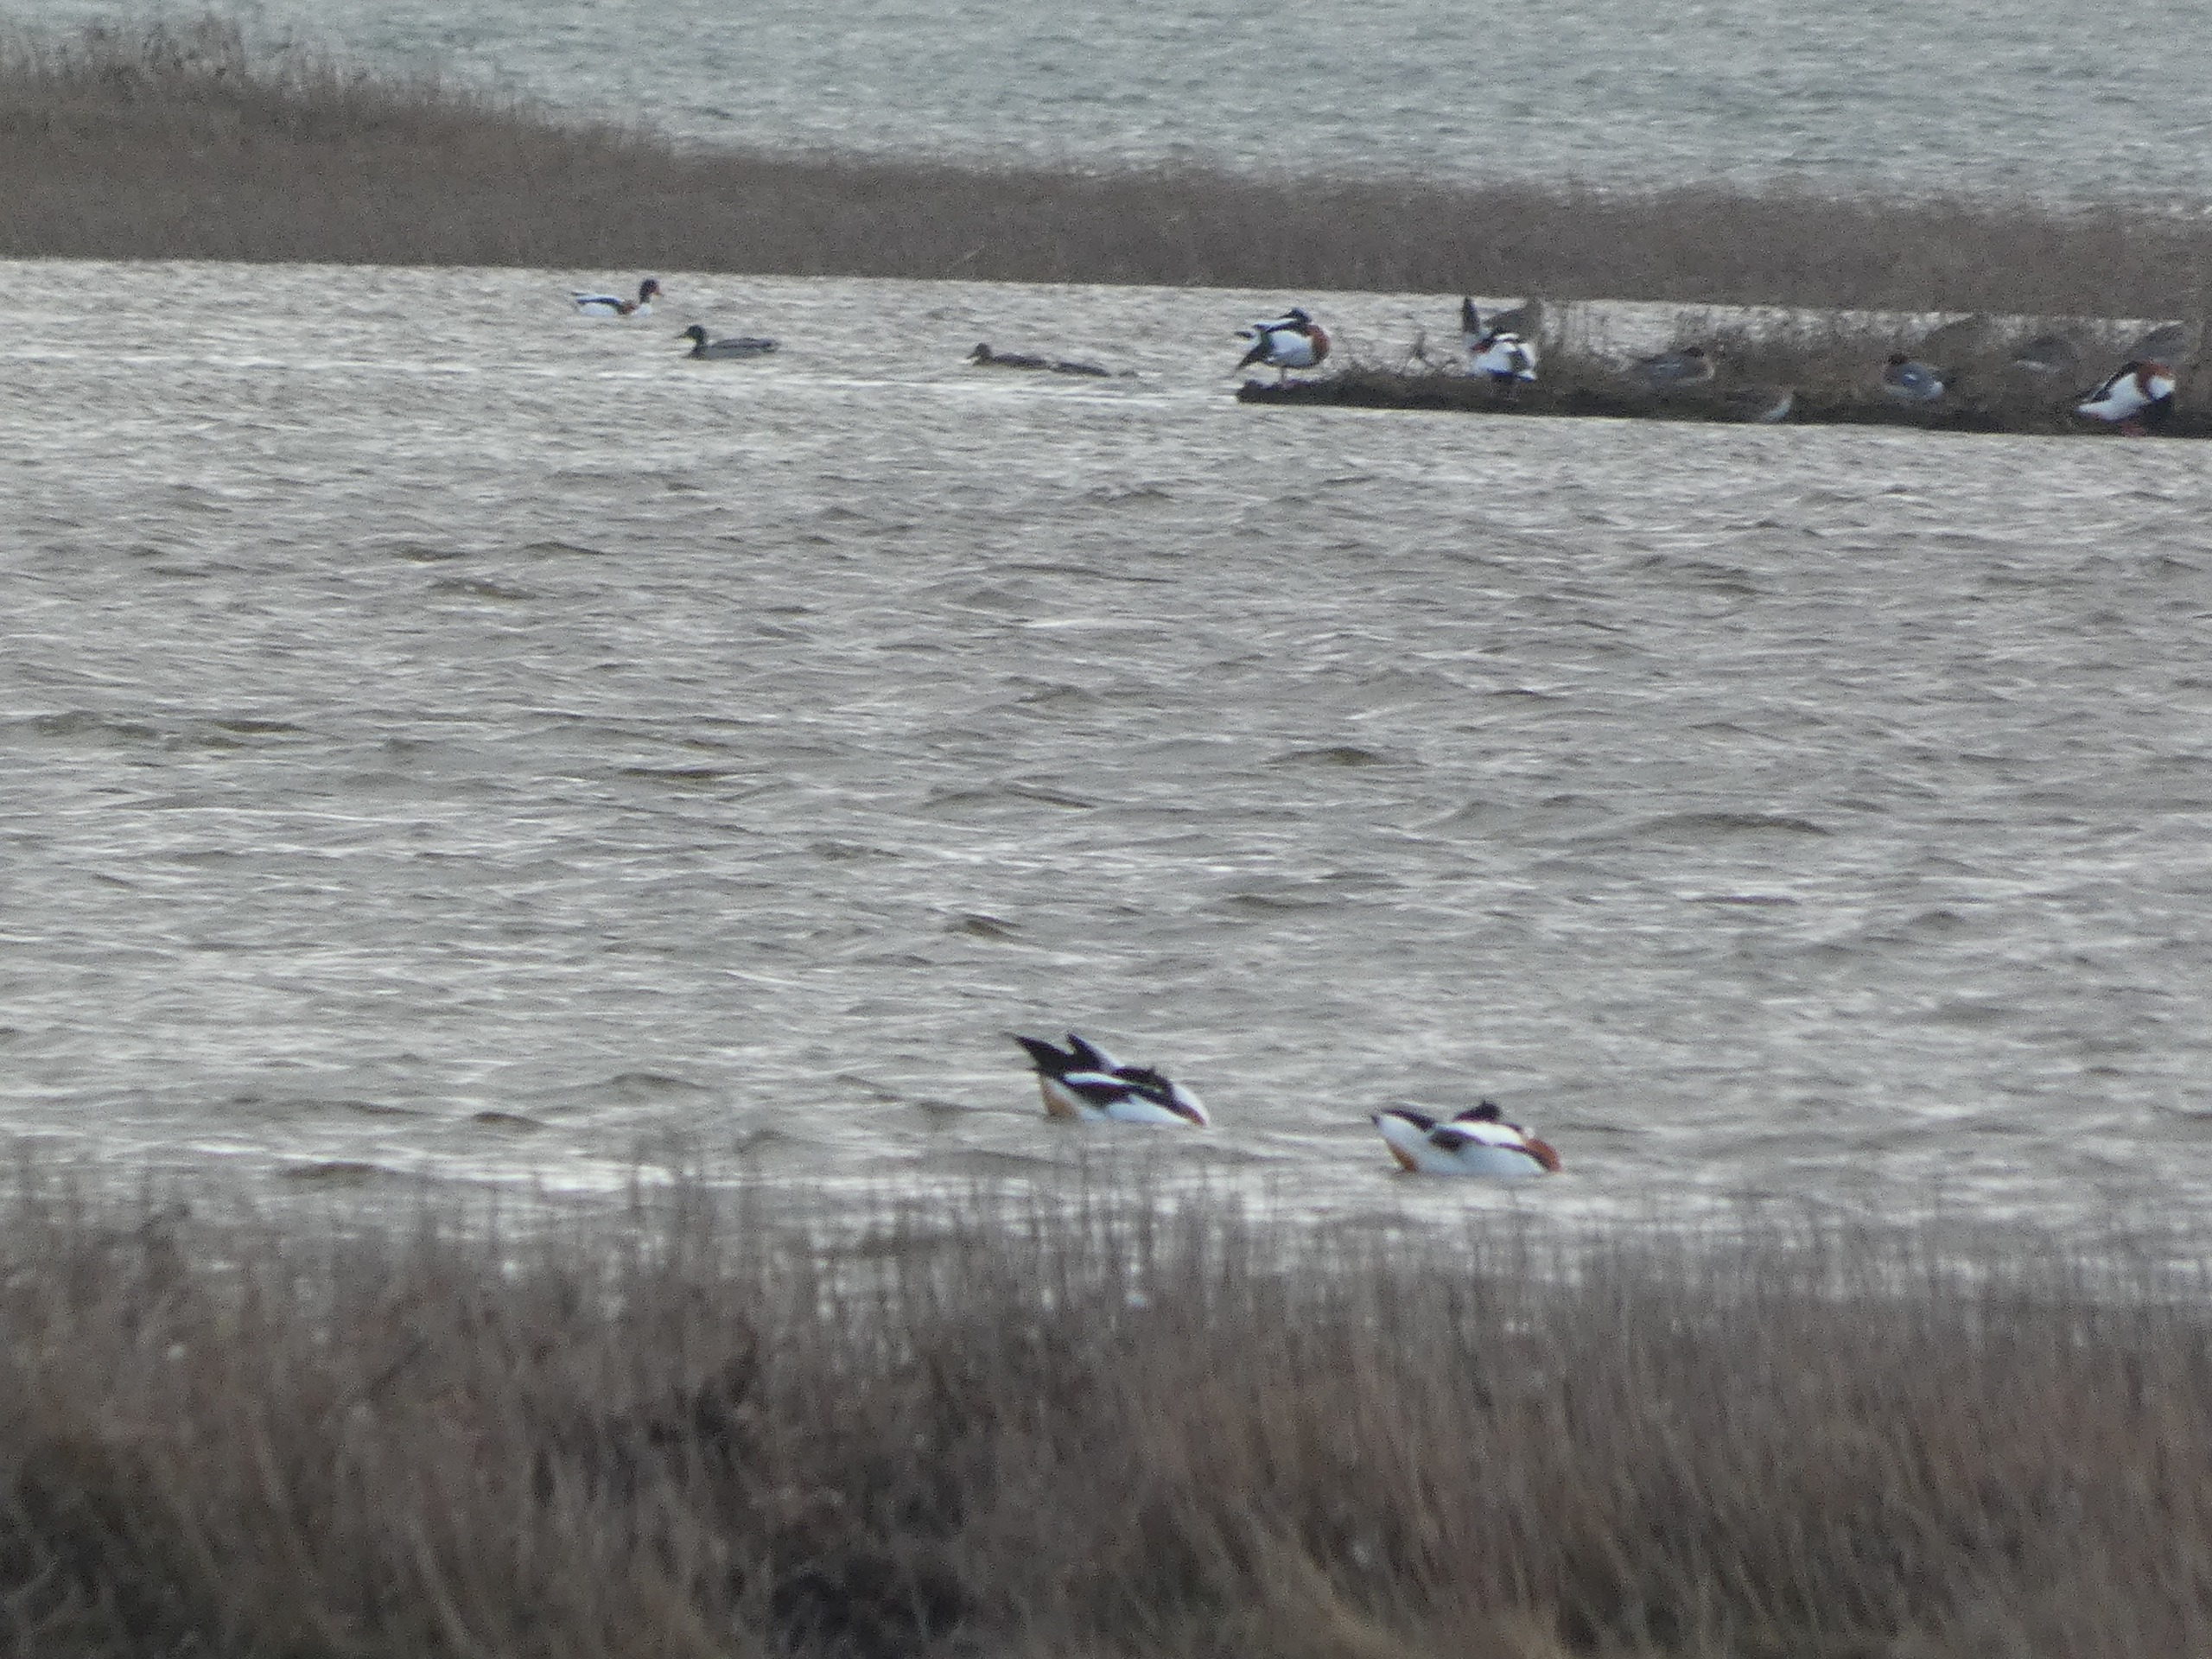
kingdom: Animalia
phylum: Chordata
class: Aves
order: Anseriformes
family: Anatidae
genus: Anas
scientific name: Anas platyrhynchos
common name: Gråand
